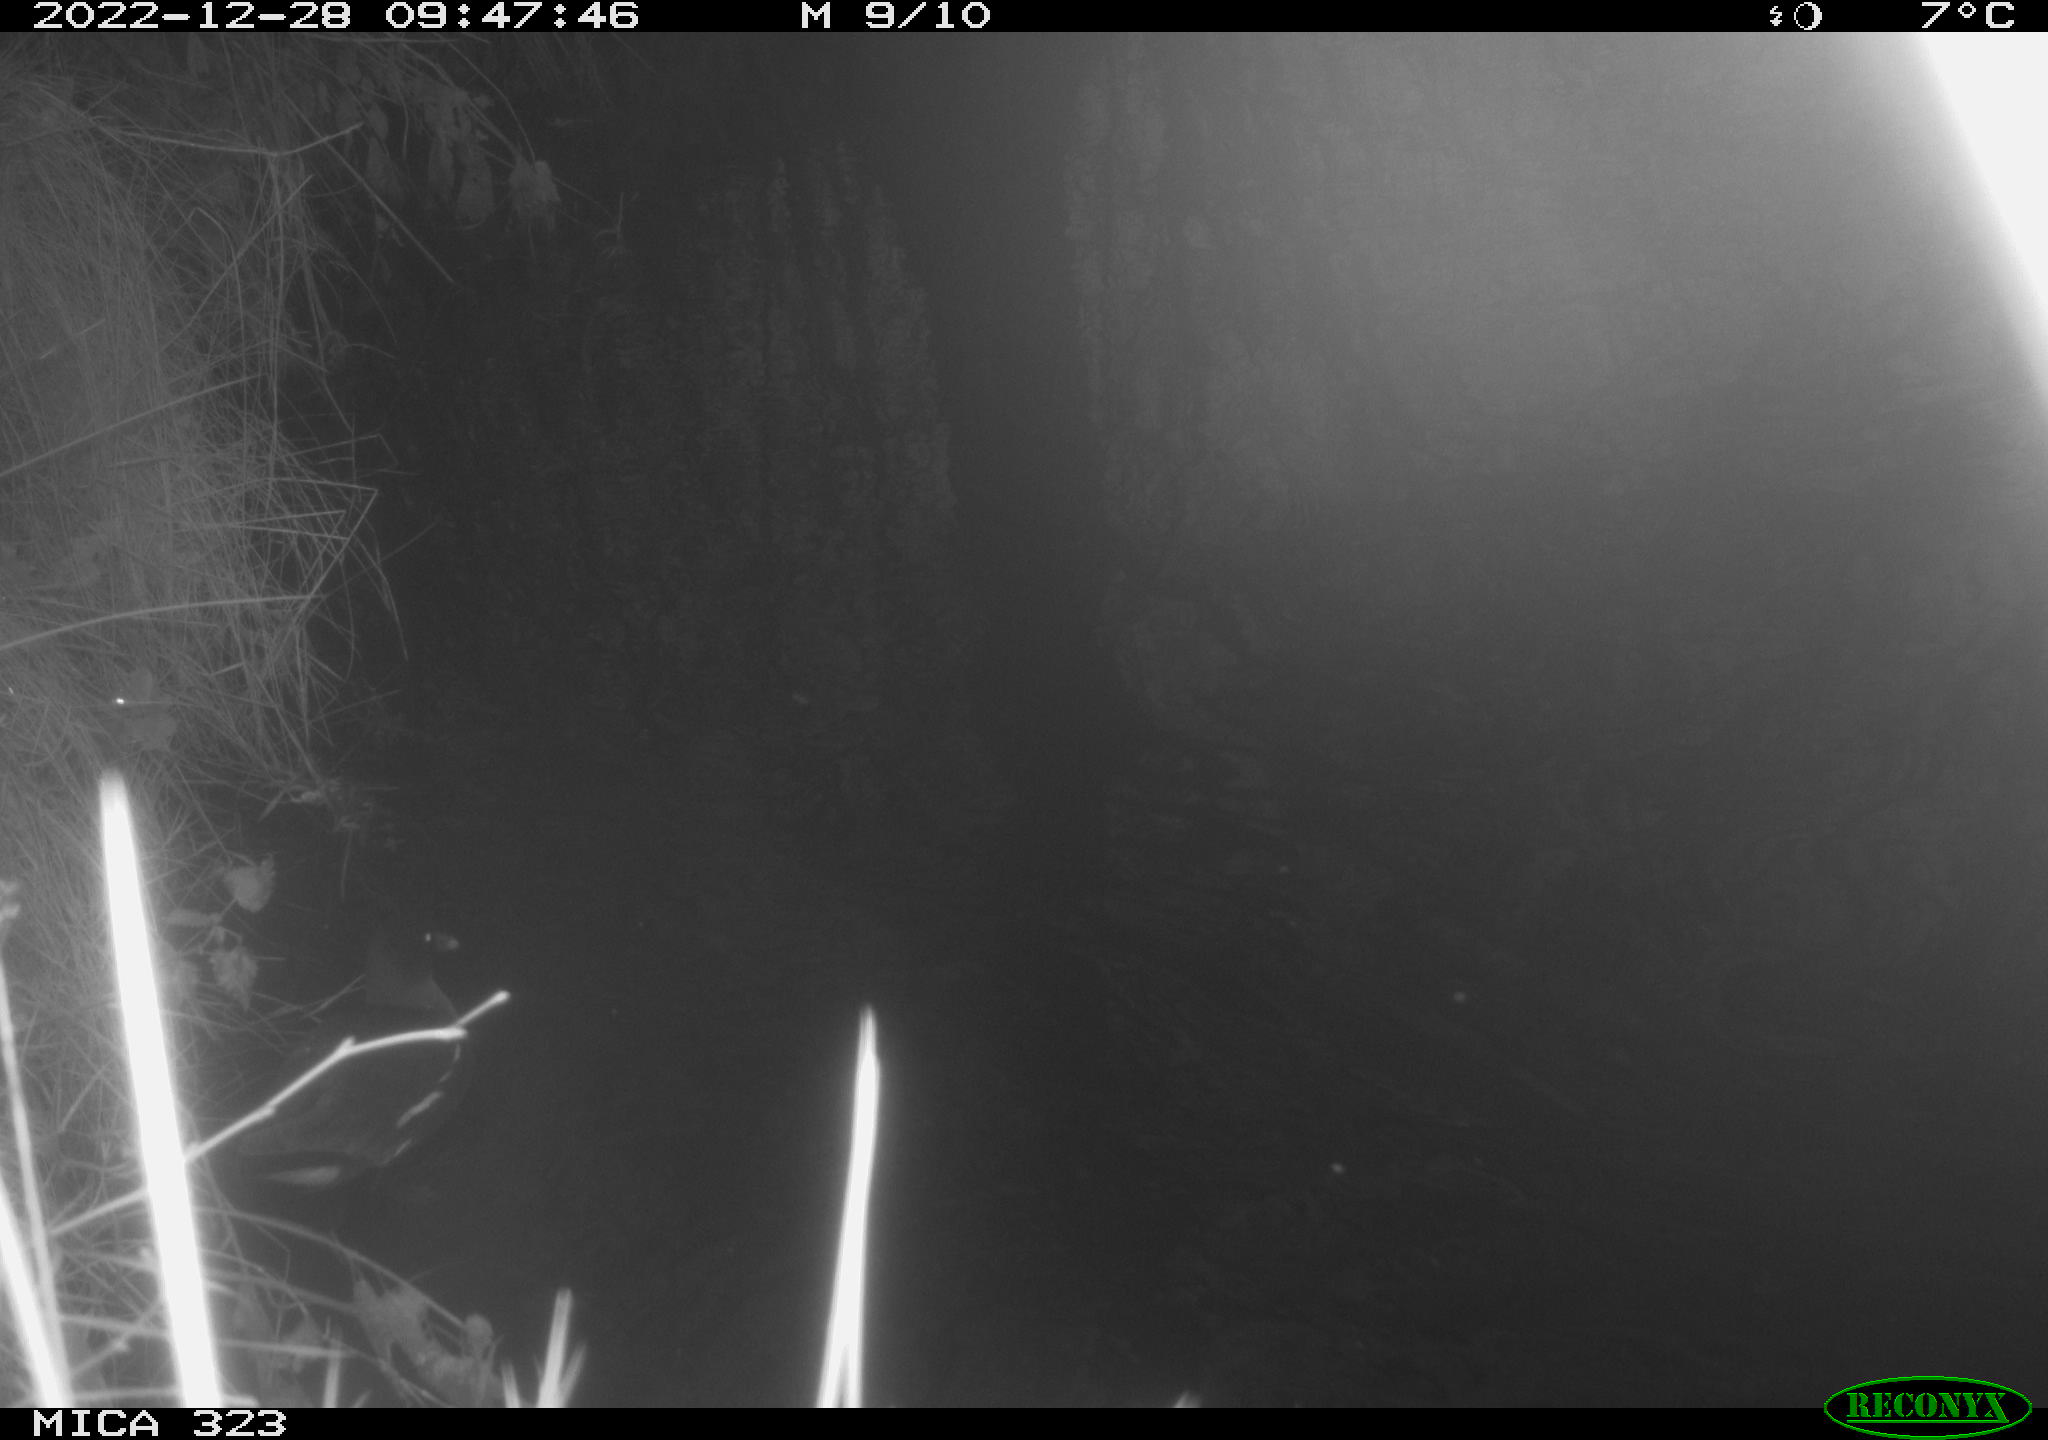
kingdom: Animalia
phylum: Chordata
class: Aves
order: Gruiformes
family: Rallidae
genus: Gallinula
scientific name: Gallinula chloropus
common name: Common moorhen
